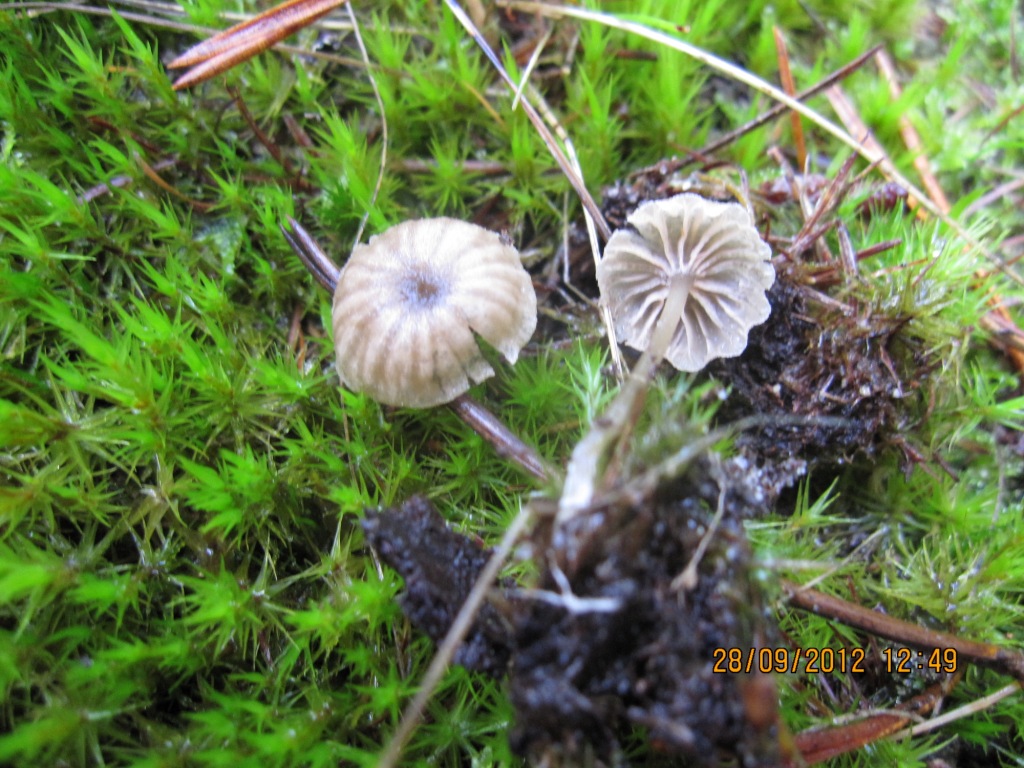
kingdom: Fungi
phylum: Basidiomycota
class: Agaricomycetes
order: Agaricales
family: Entolomataceae
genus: Entoloma
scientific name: Entoloma rhodocylix
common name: fjernbladet rødblad
